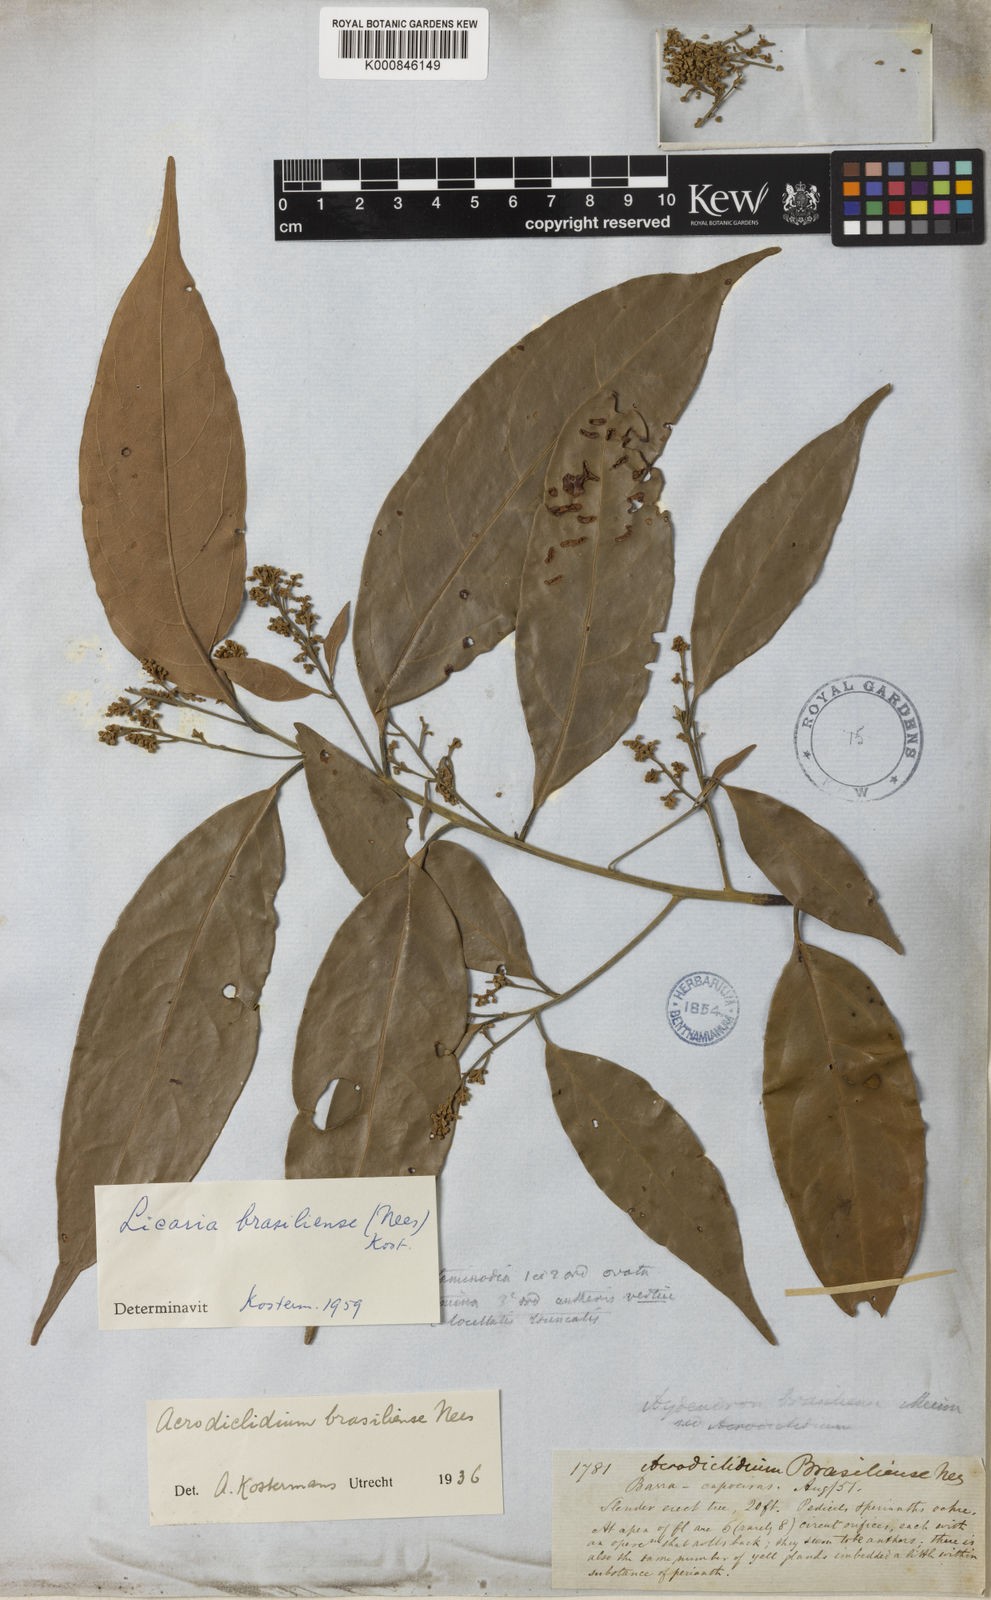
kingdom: Plantae
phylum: Tracheophyta
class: Magnoliopsida
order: Laurales
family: Lauraceae
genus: Licaria
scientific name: Licaria brasiliensis
